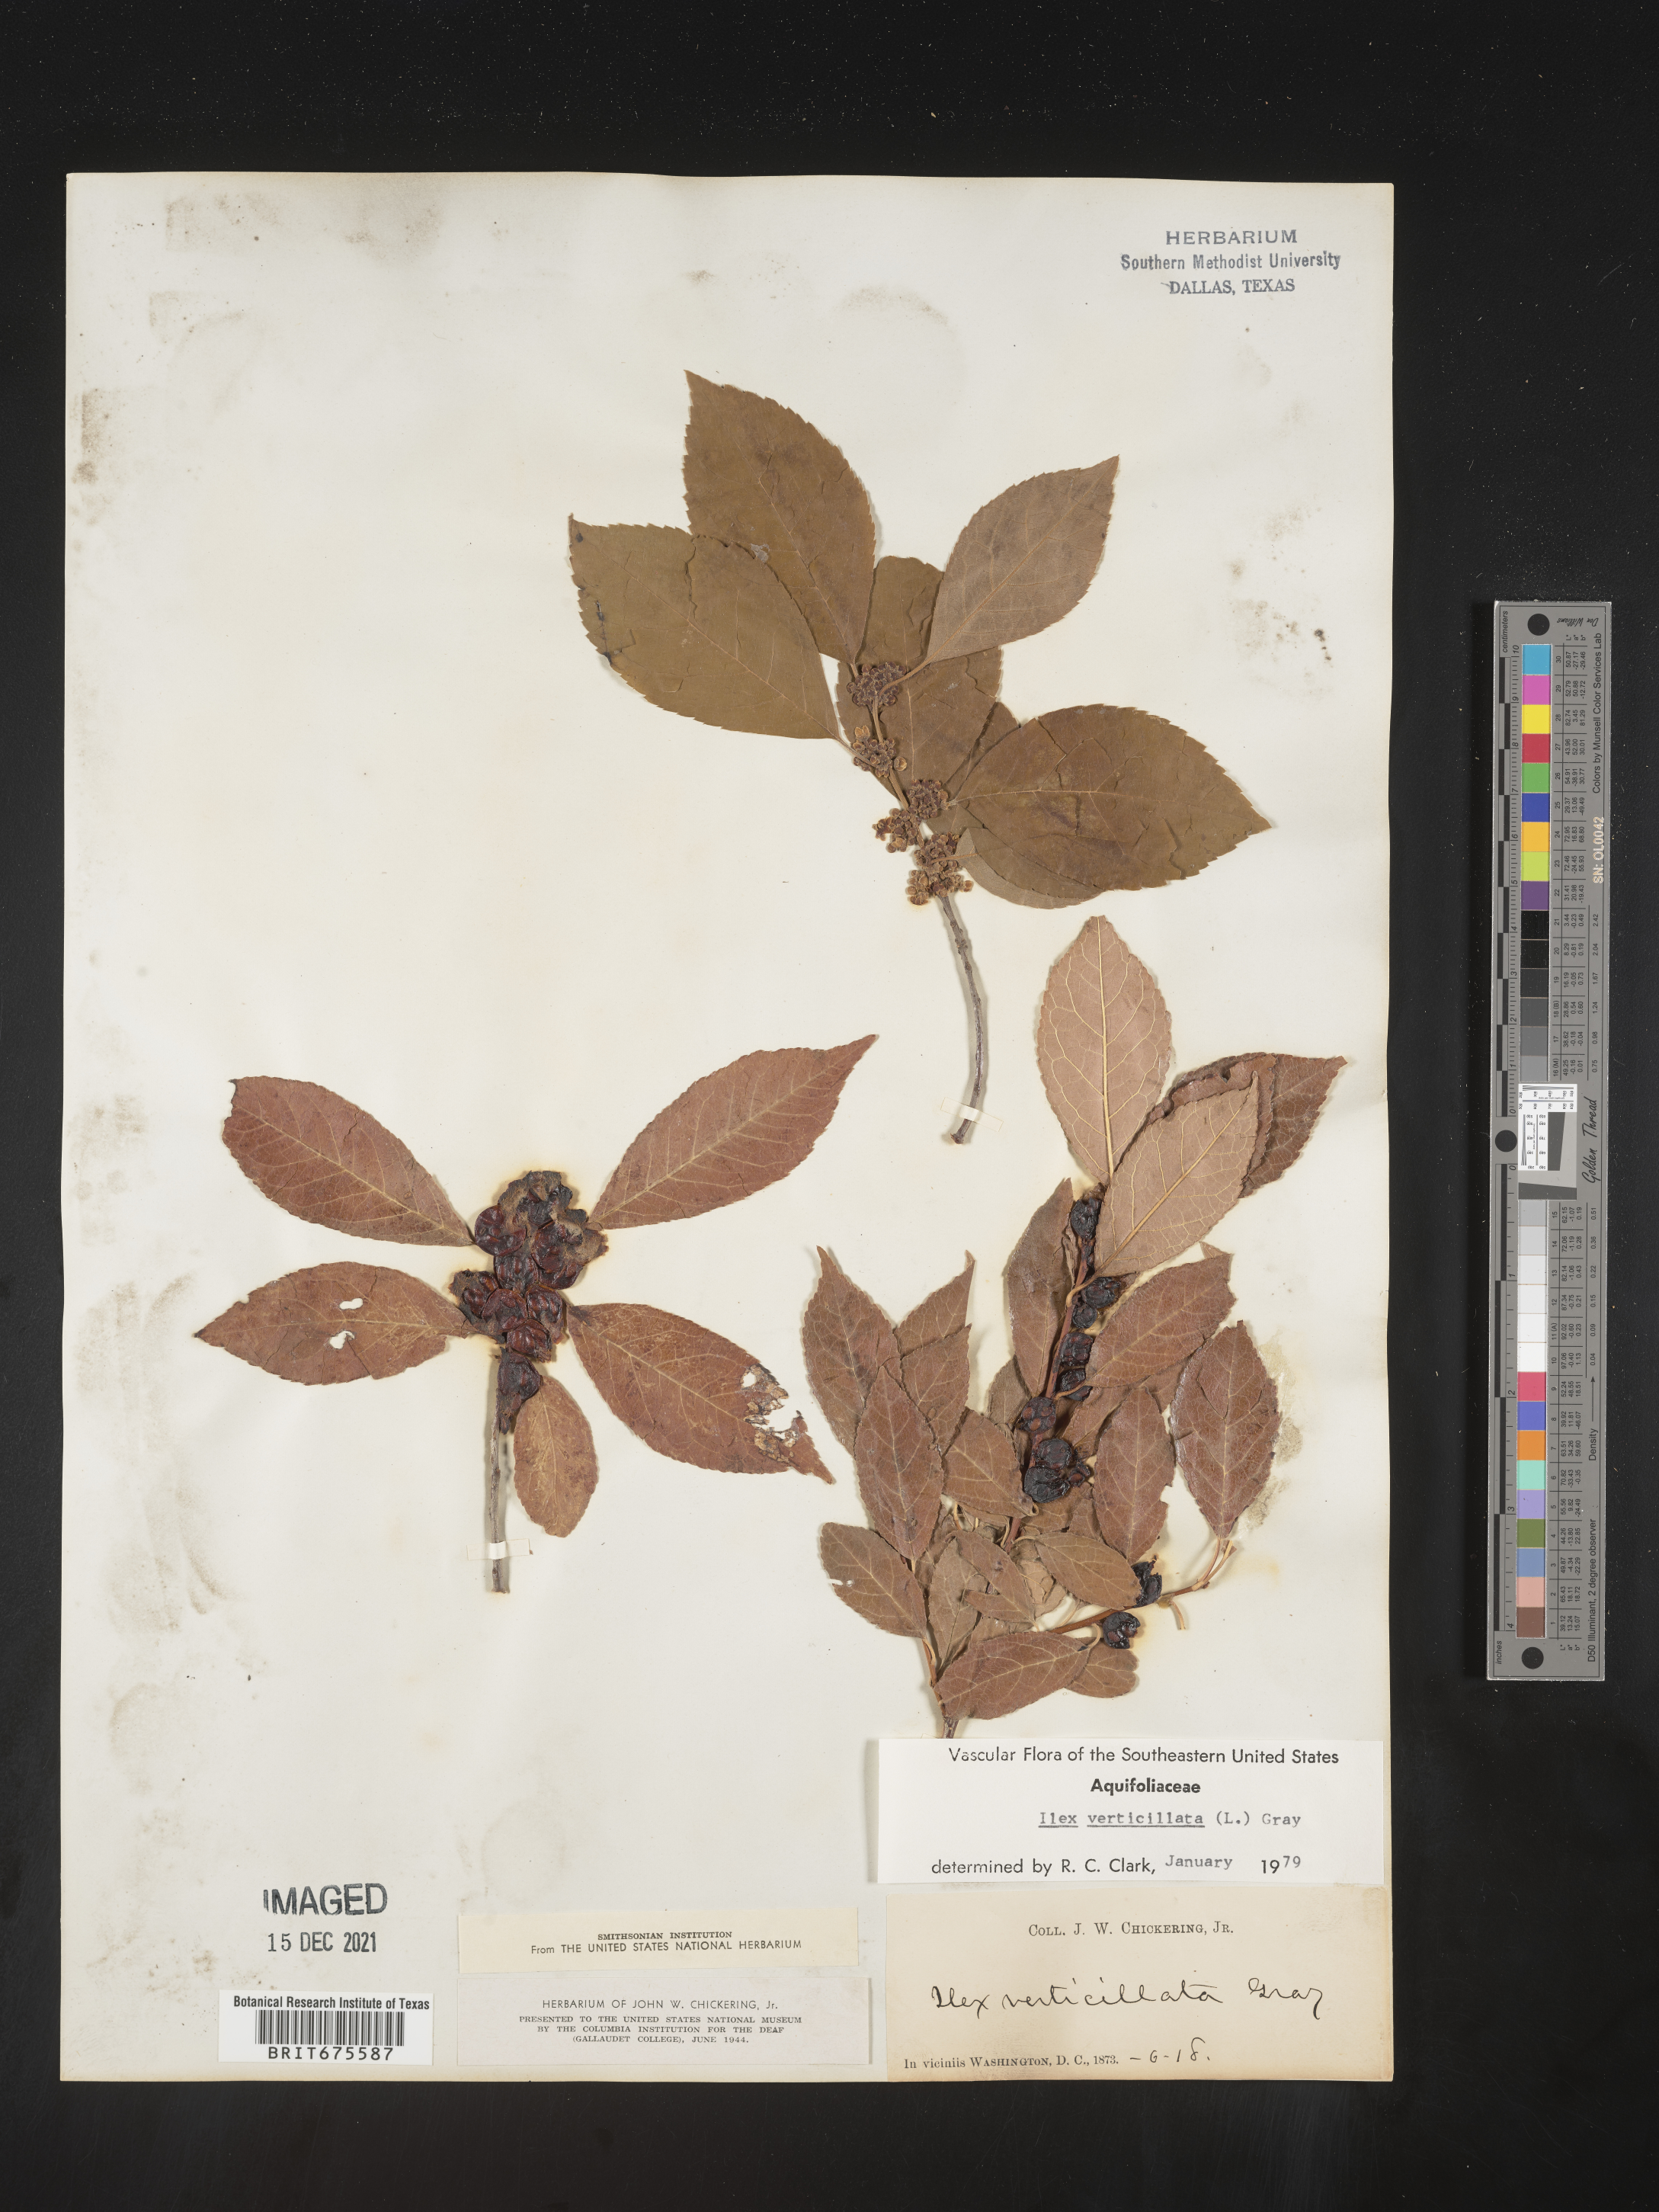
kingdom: Plantae
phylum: Tracheophyta
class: Magnoliopsida
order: Aquifoliales
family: Aquifoliaceae
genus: Ilex
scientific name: Ilex verticillata
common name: Virginia winterberry
